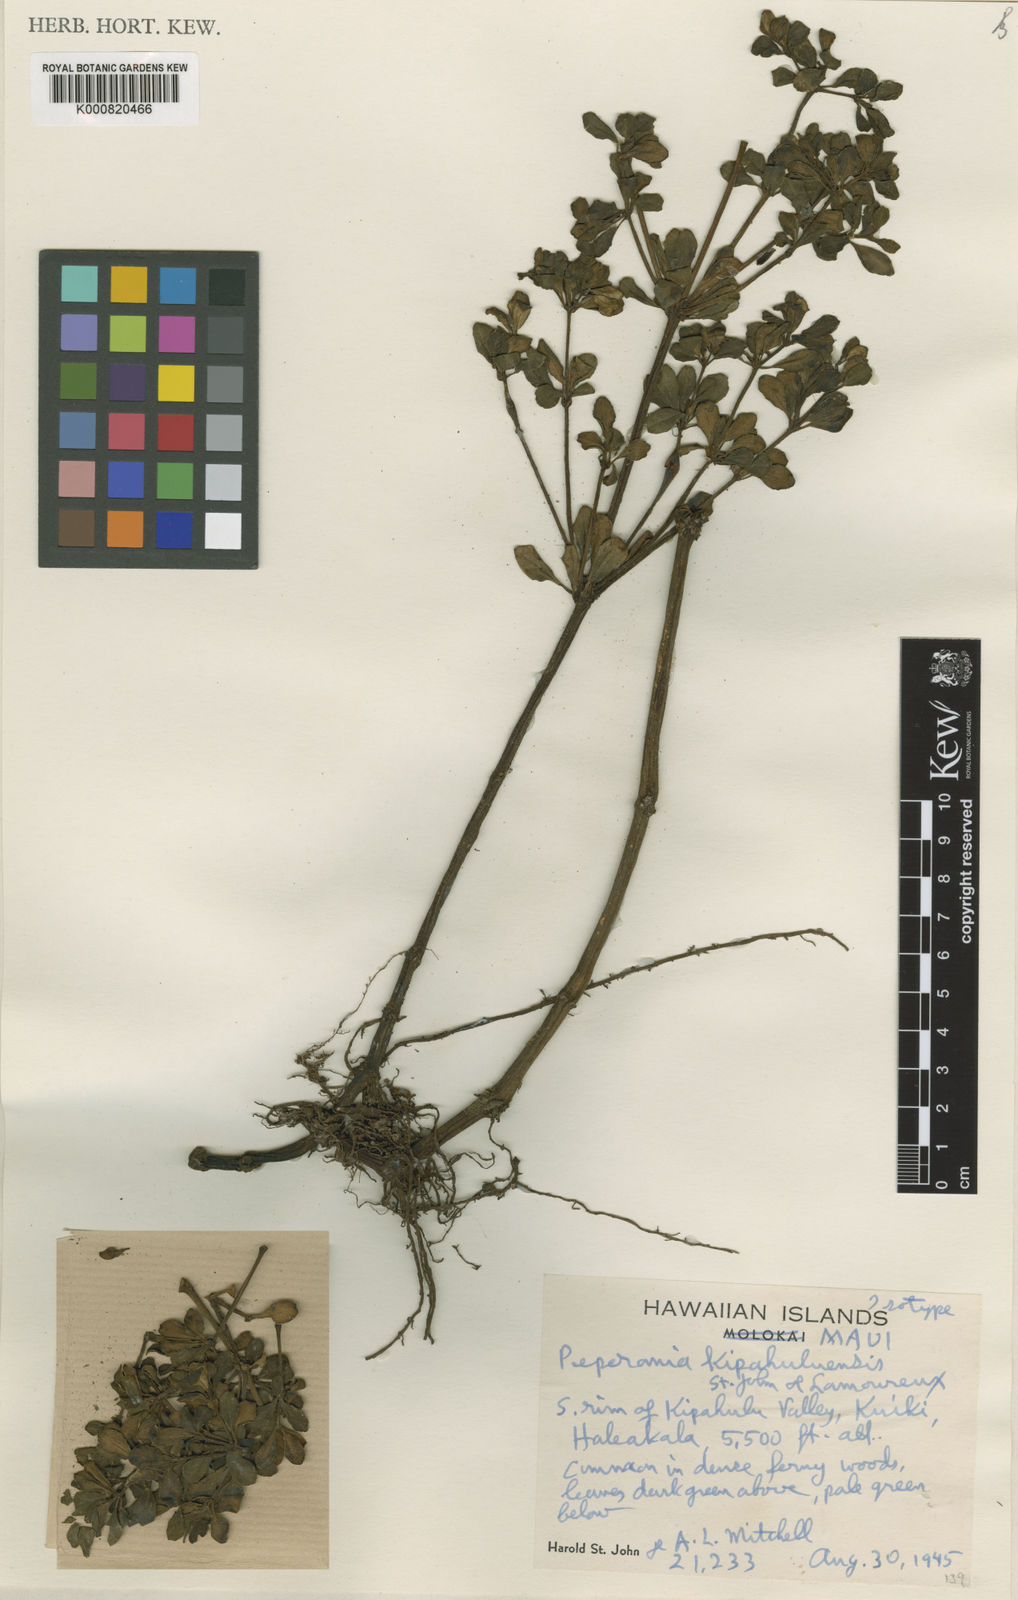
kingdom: Plantae
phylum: Tracheophyta
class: Magnoliopsida
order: Piperales
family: Piperaceae
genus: Peperomia
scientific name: Peperomia kipahuluensis
